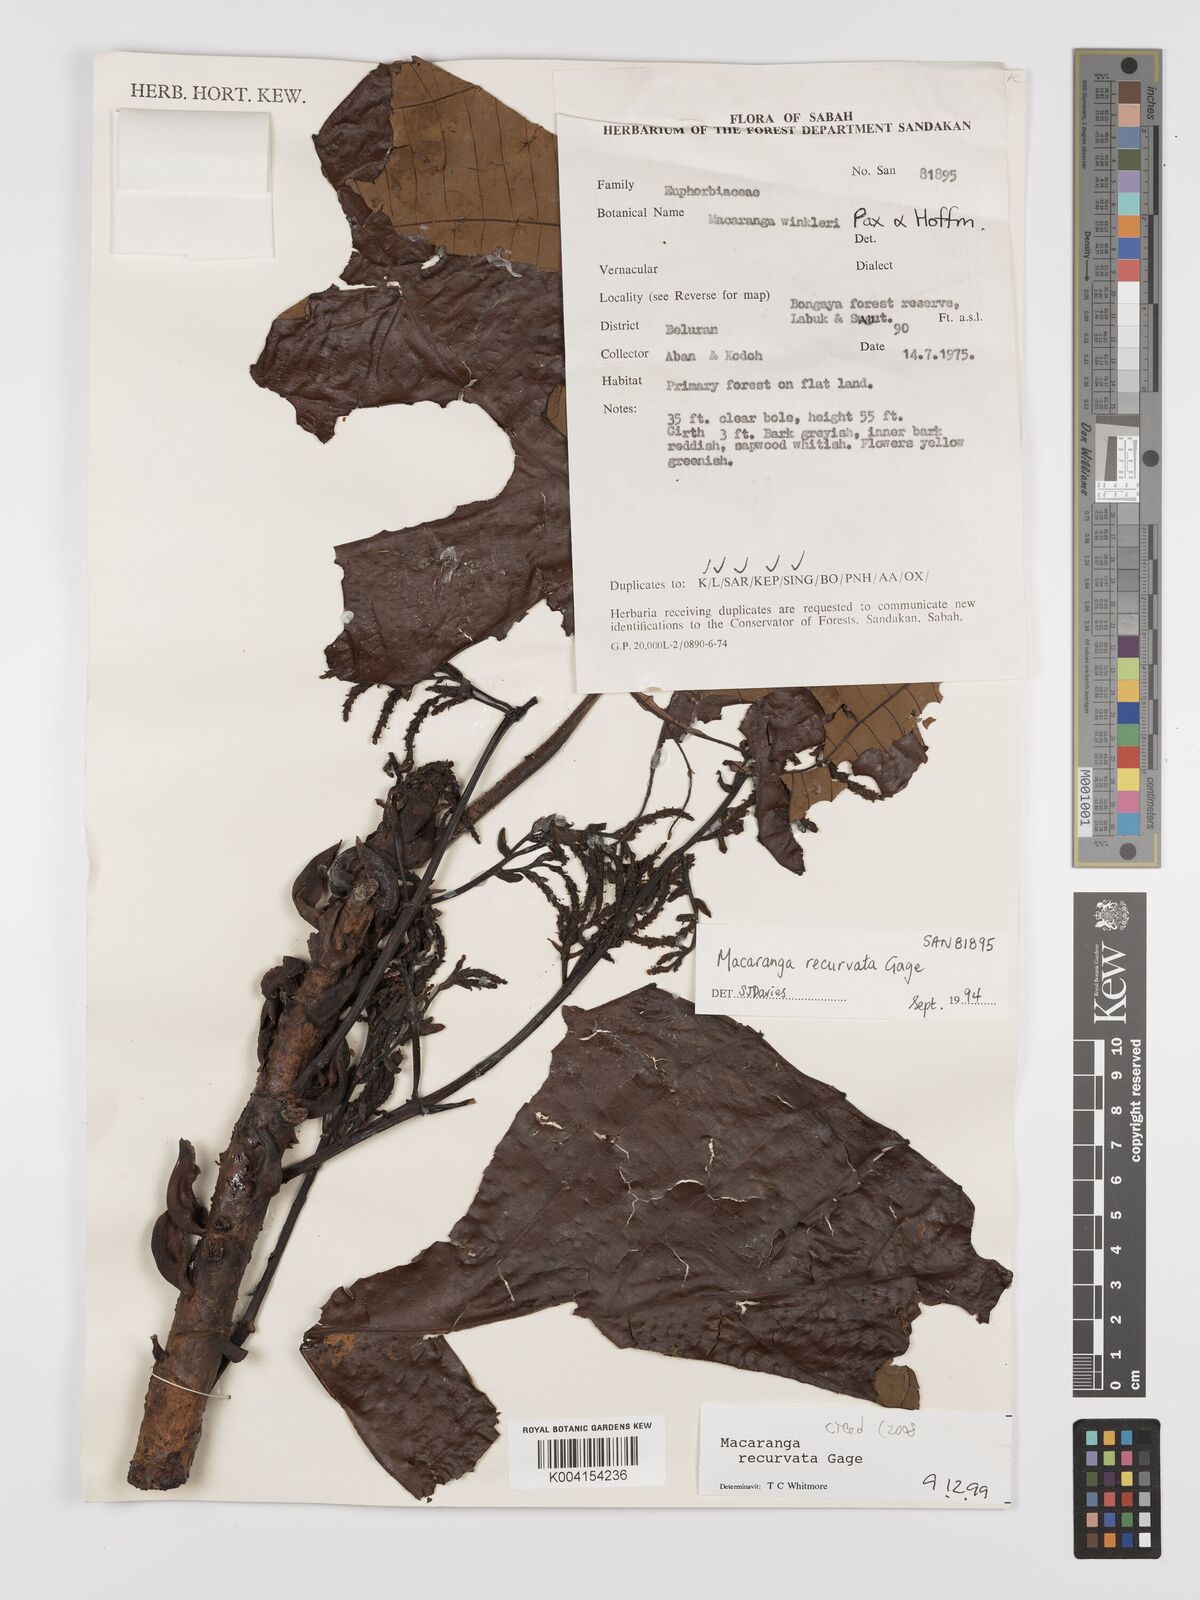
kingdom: Plantae
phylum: Tracheophyta
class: Magnoliopsida
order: Malpighiales
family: Euphorbiaceae
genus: Macaranga
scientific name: Macaranga recurvata
